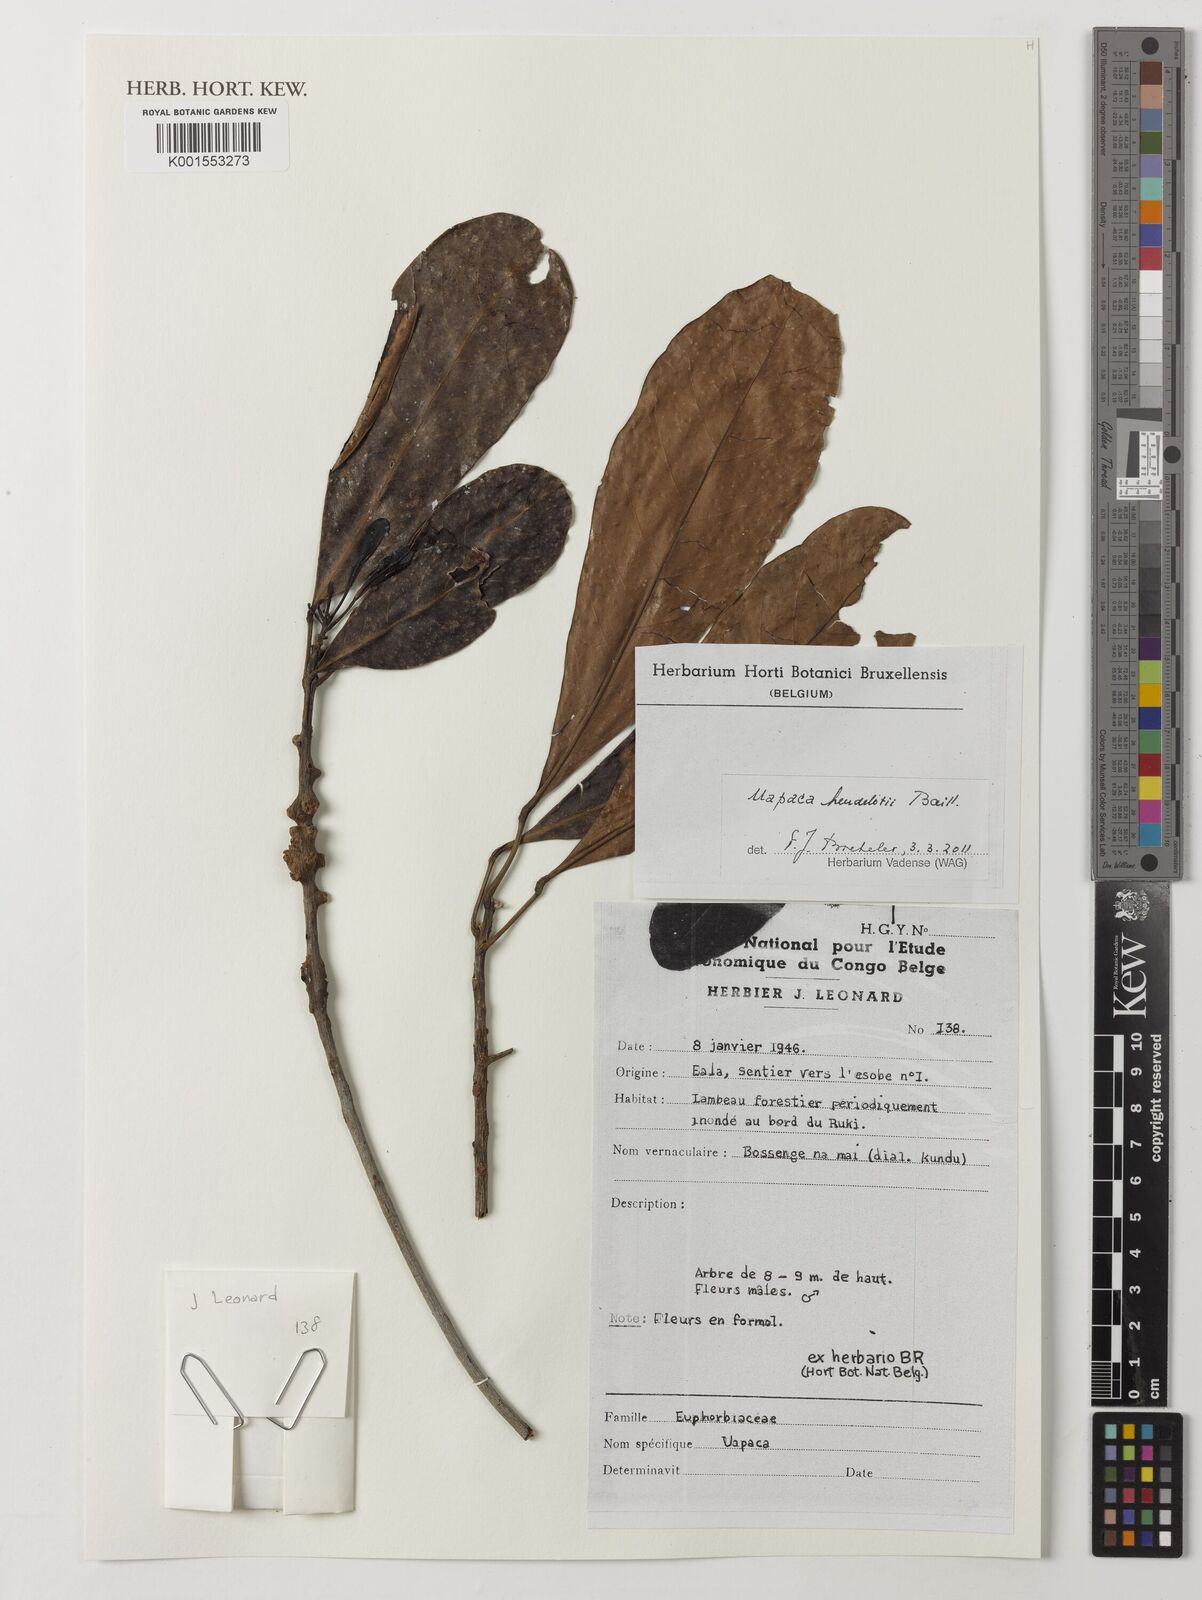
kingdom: Plantae
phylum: Tracheophyta
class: Magnoliopsida
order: Malpighiales
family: Phyllanthaceae
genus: Uapaca
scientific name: Uapaca heudelotii
